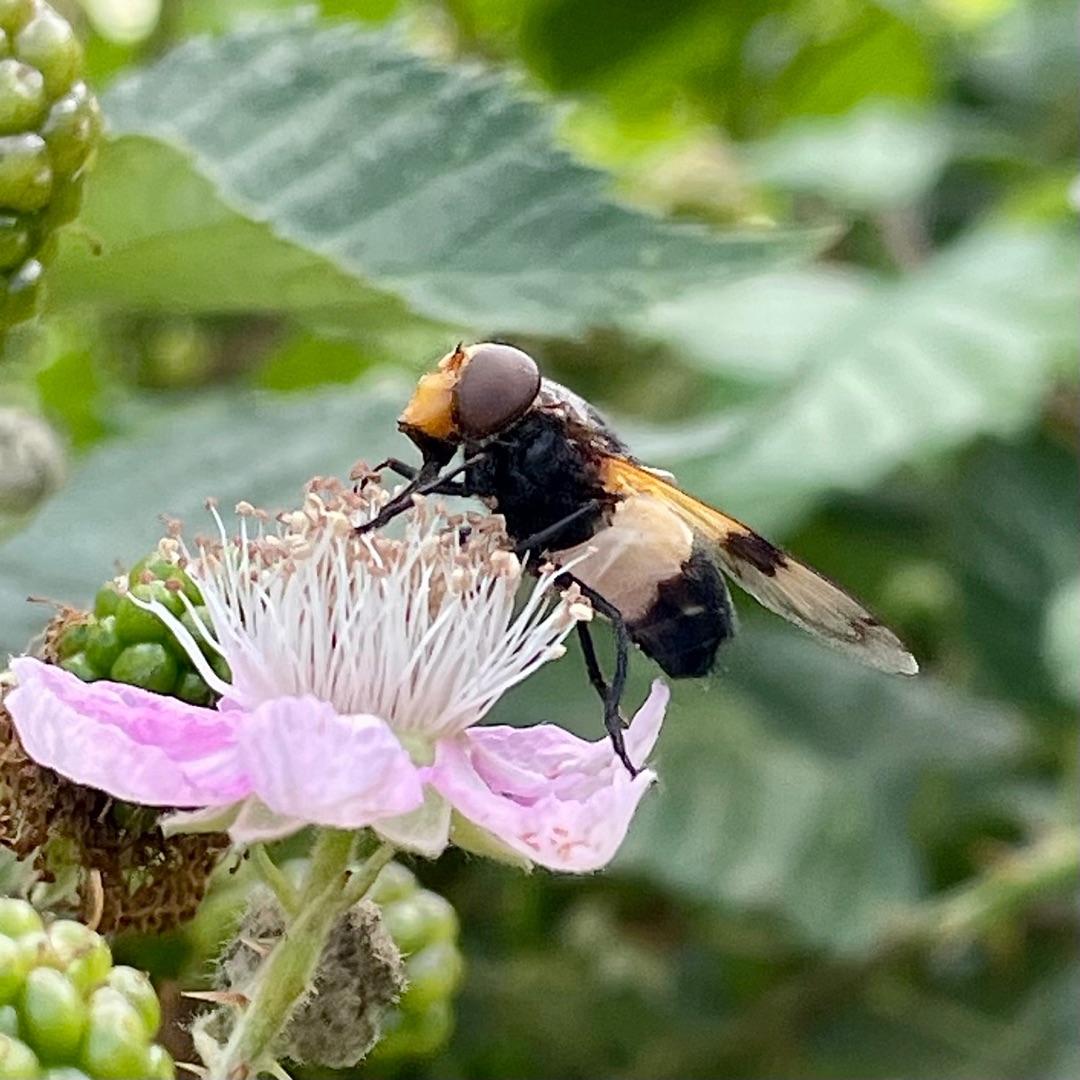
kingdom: Animalia
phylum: Arthropoda
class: Insecta
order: Diptera
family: Syrphidae
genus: Volucella
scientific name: Volucella pellucens
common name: Hvidbåndet humlesvirreflue
